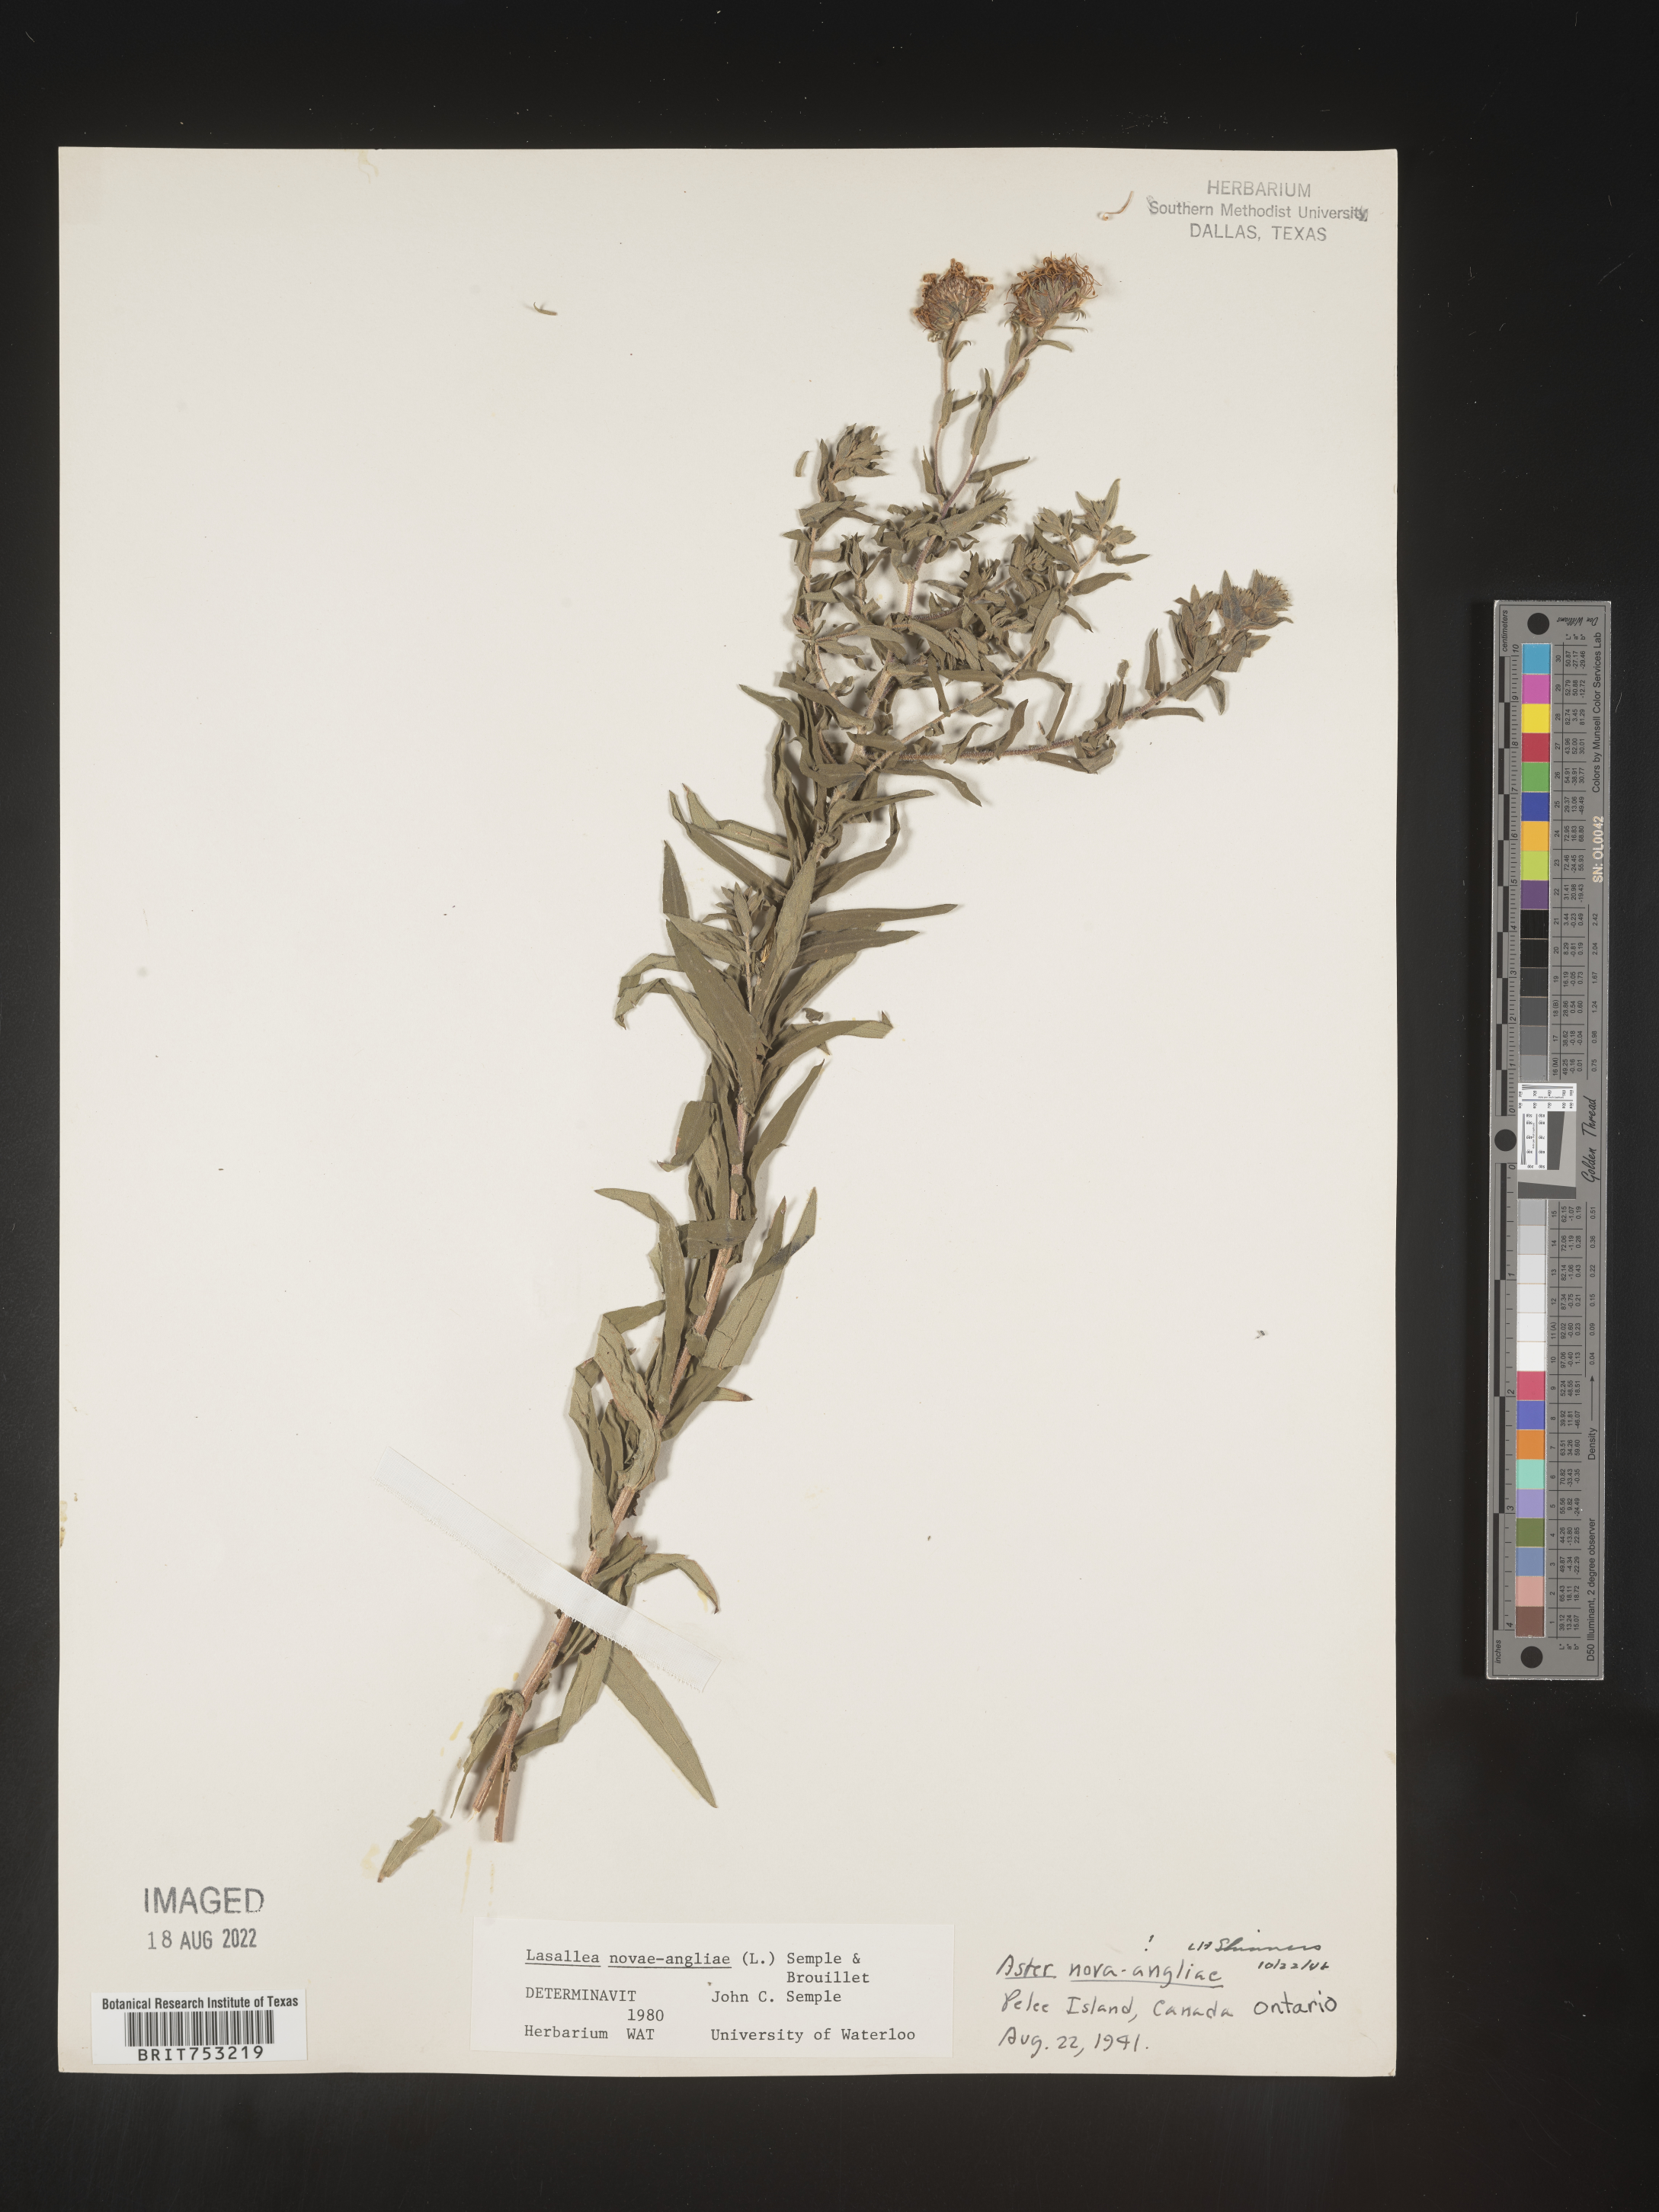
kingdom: Plantae
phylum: Tracheophyta
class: Magnoliopsida
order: Asterales
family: Asteraceae
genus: Symphyotrichum
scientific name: Symphyotrichum novi-belgii
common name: Michaelmas daisy
